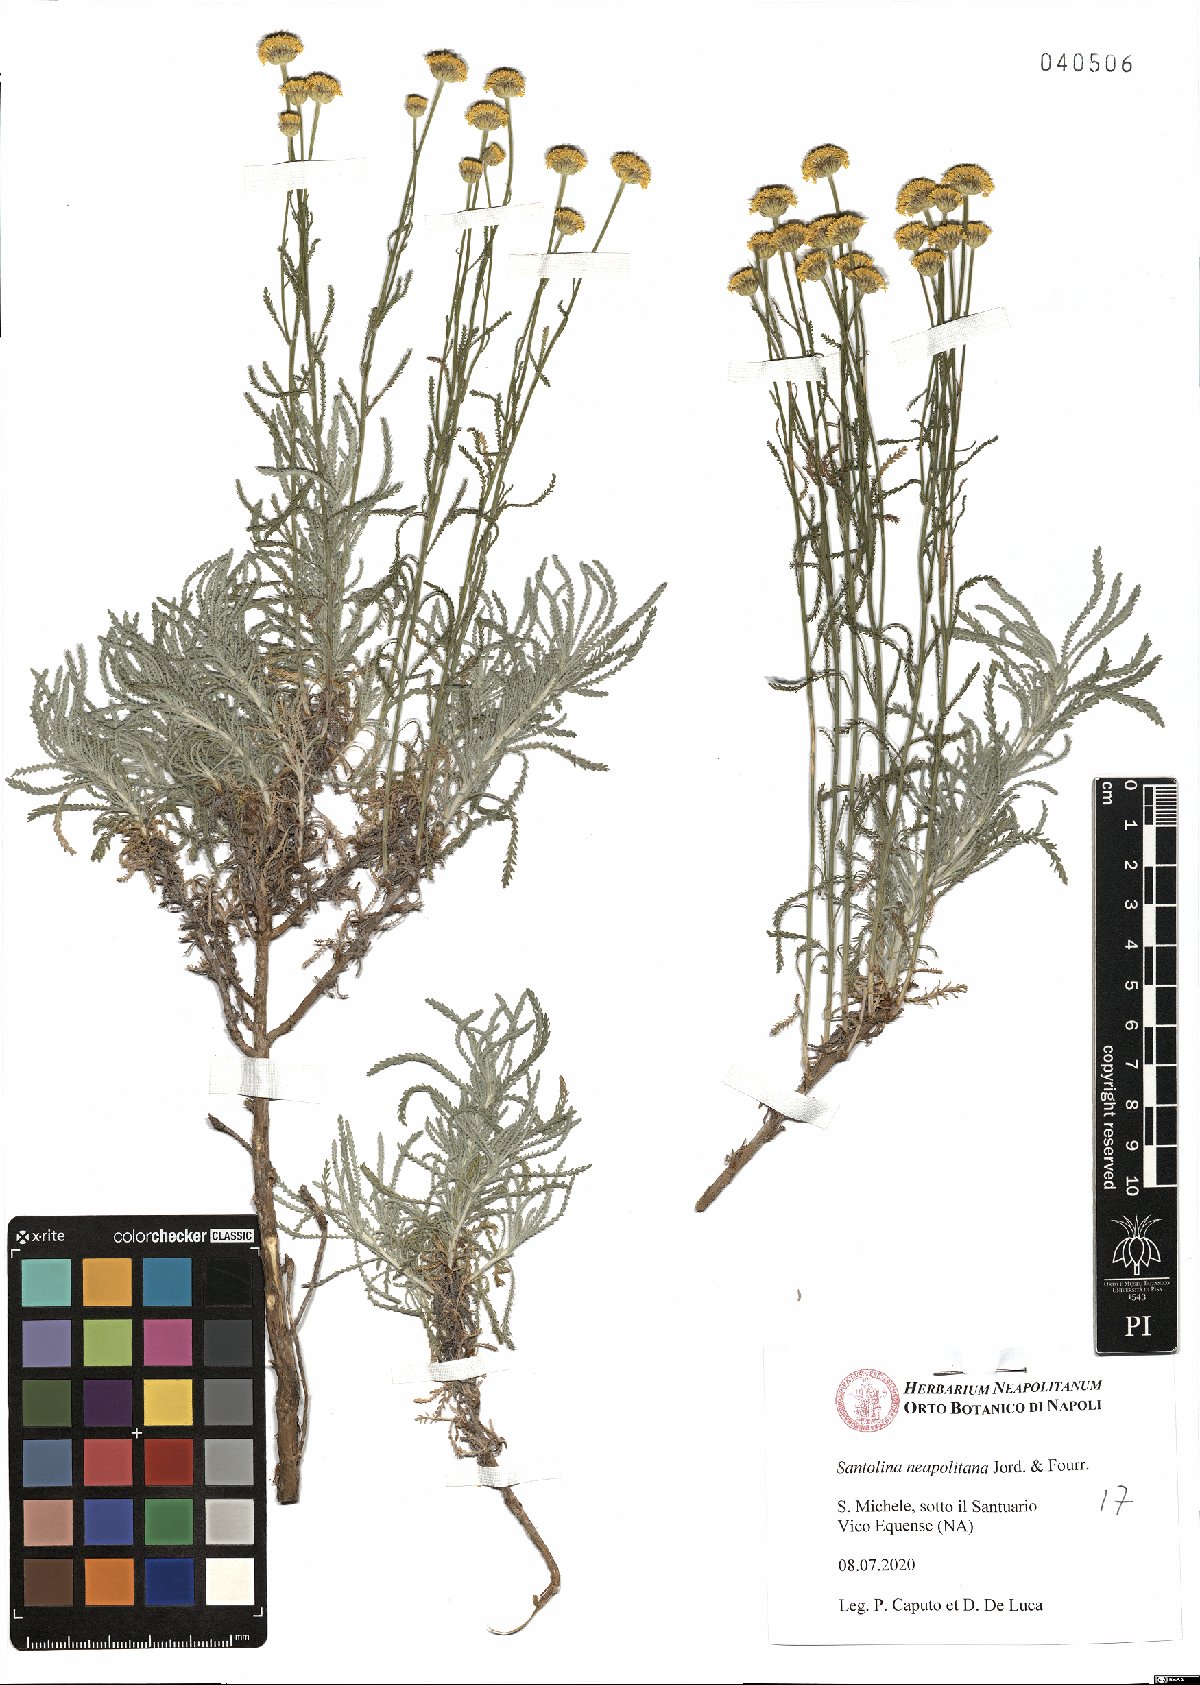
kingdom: Plantae
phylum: Tracheophyta
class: Magnoliopsida
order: Asterales
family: Asteraceae
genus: Santolina
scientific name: Santolina neapolitana
